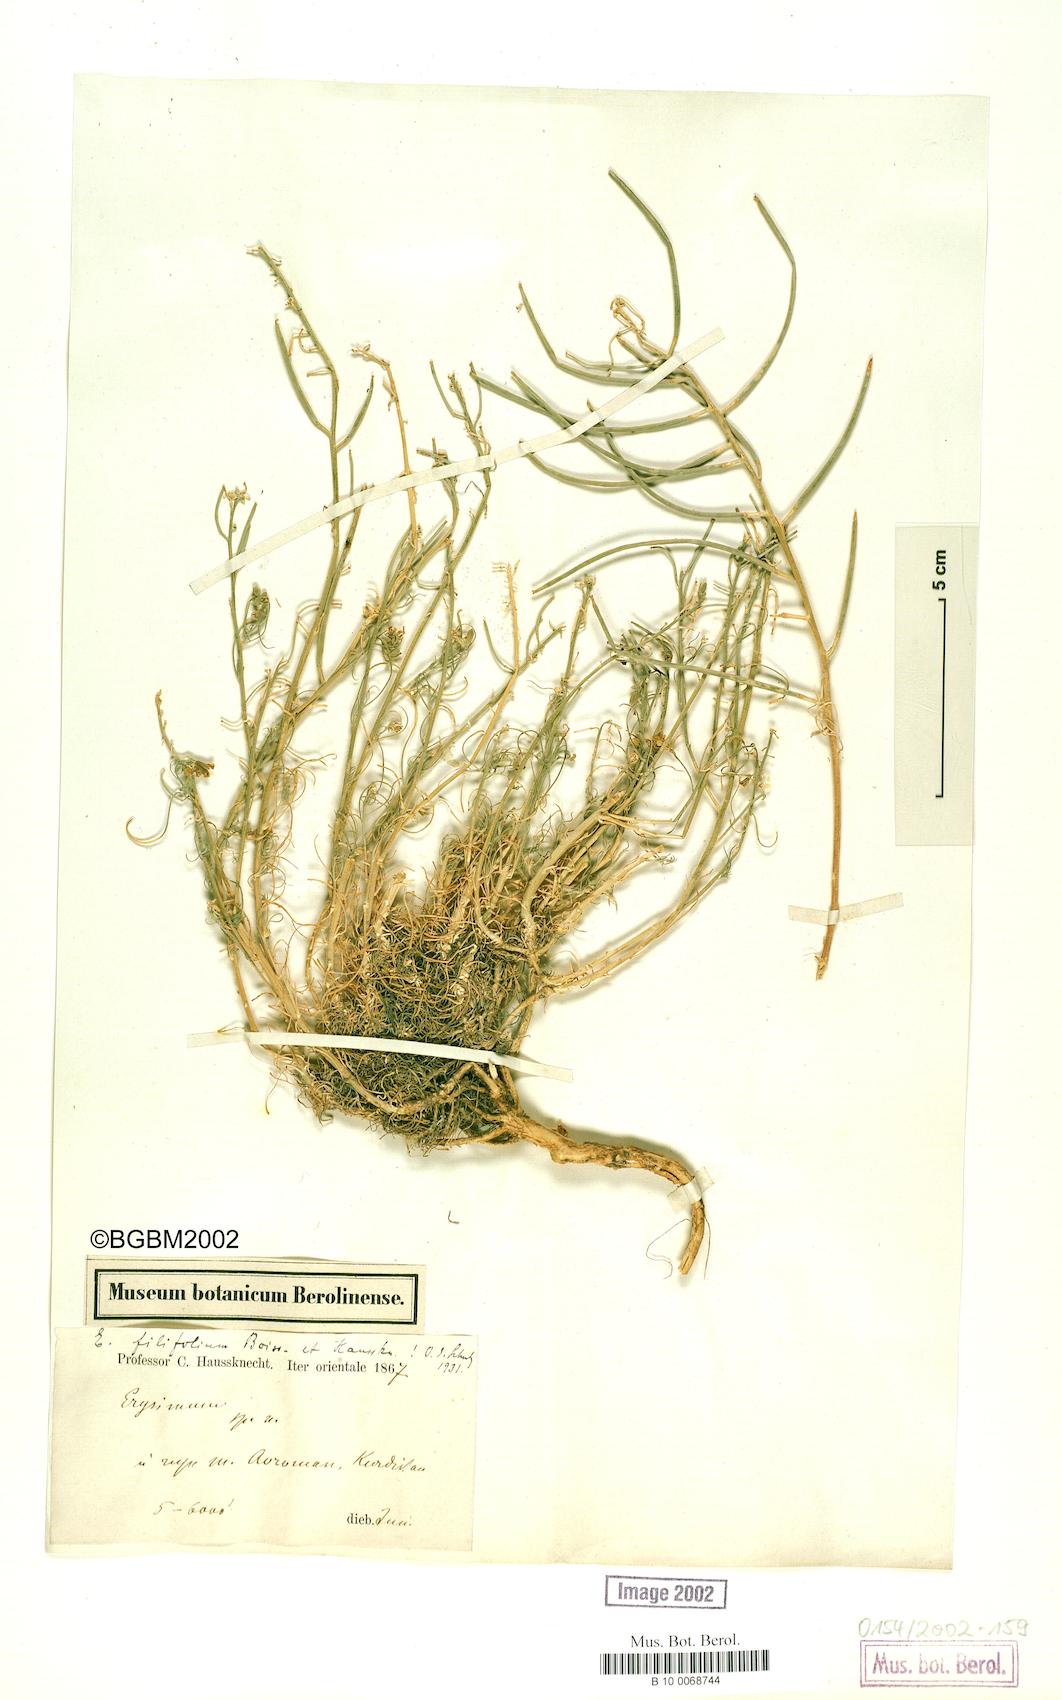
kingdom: Plantae
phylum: Tracheophyta
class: Magnoliopsida
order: Brassicales
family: Brassicaceae
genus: Erysimum
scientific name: Erysimum boissieri
